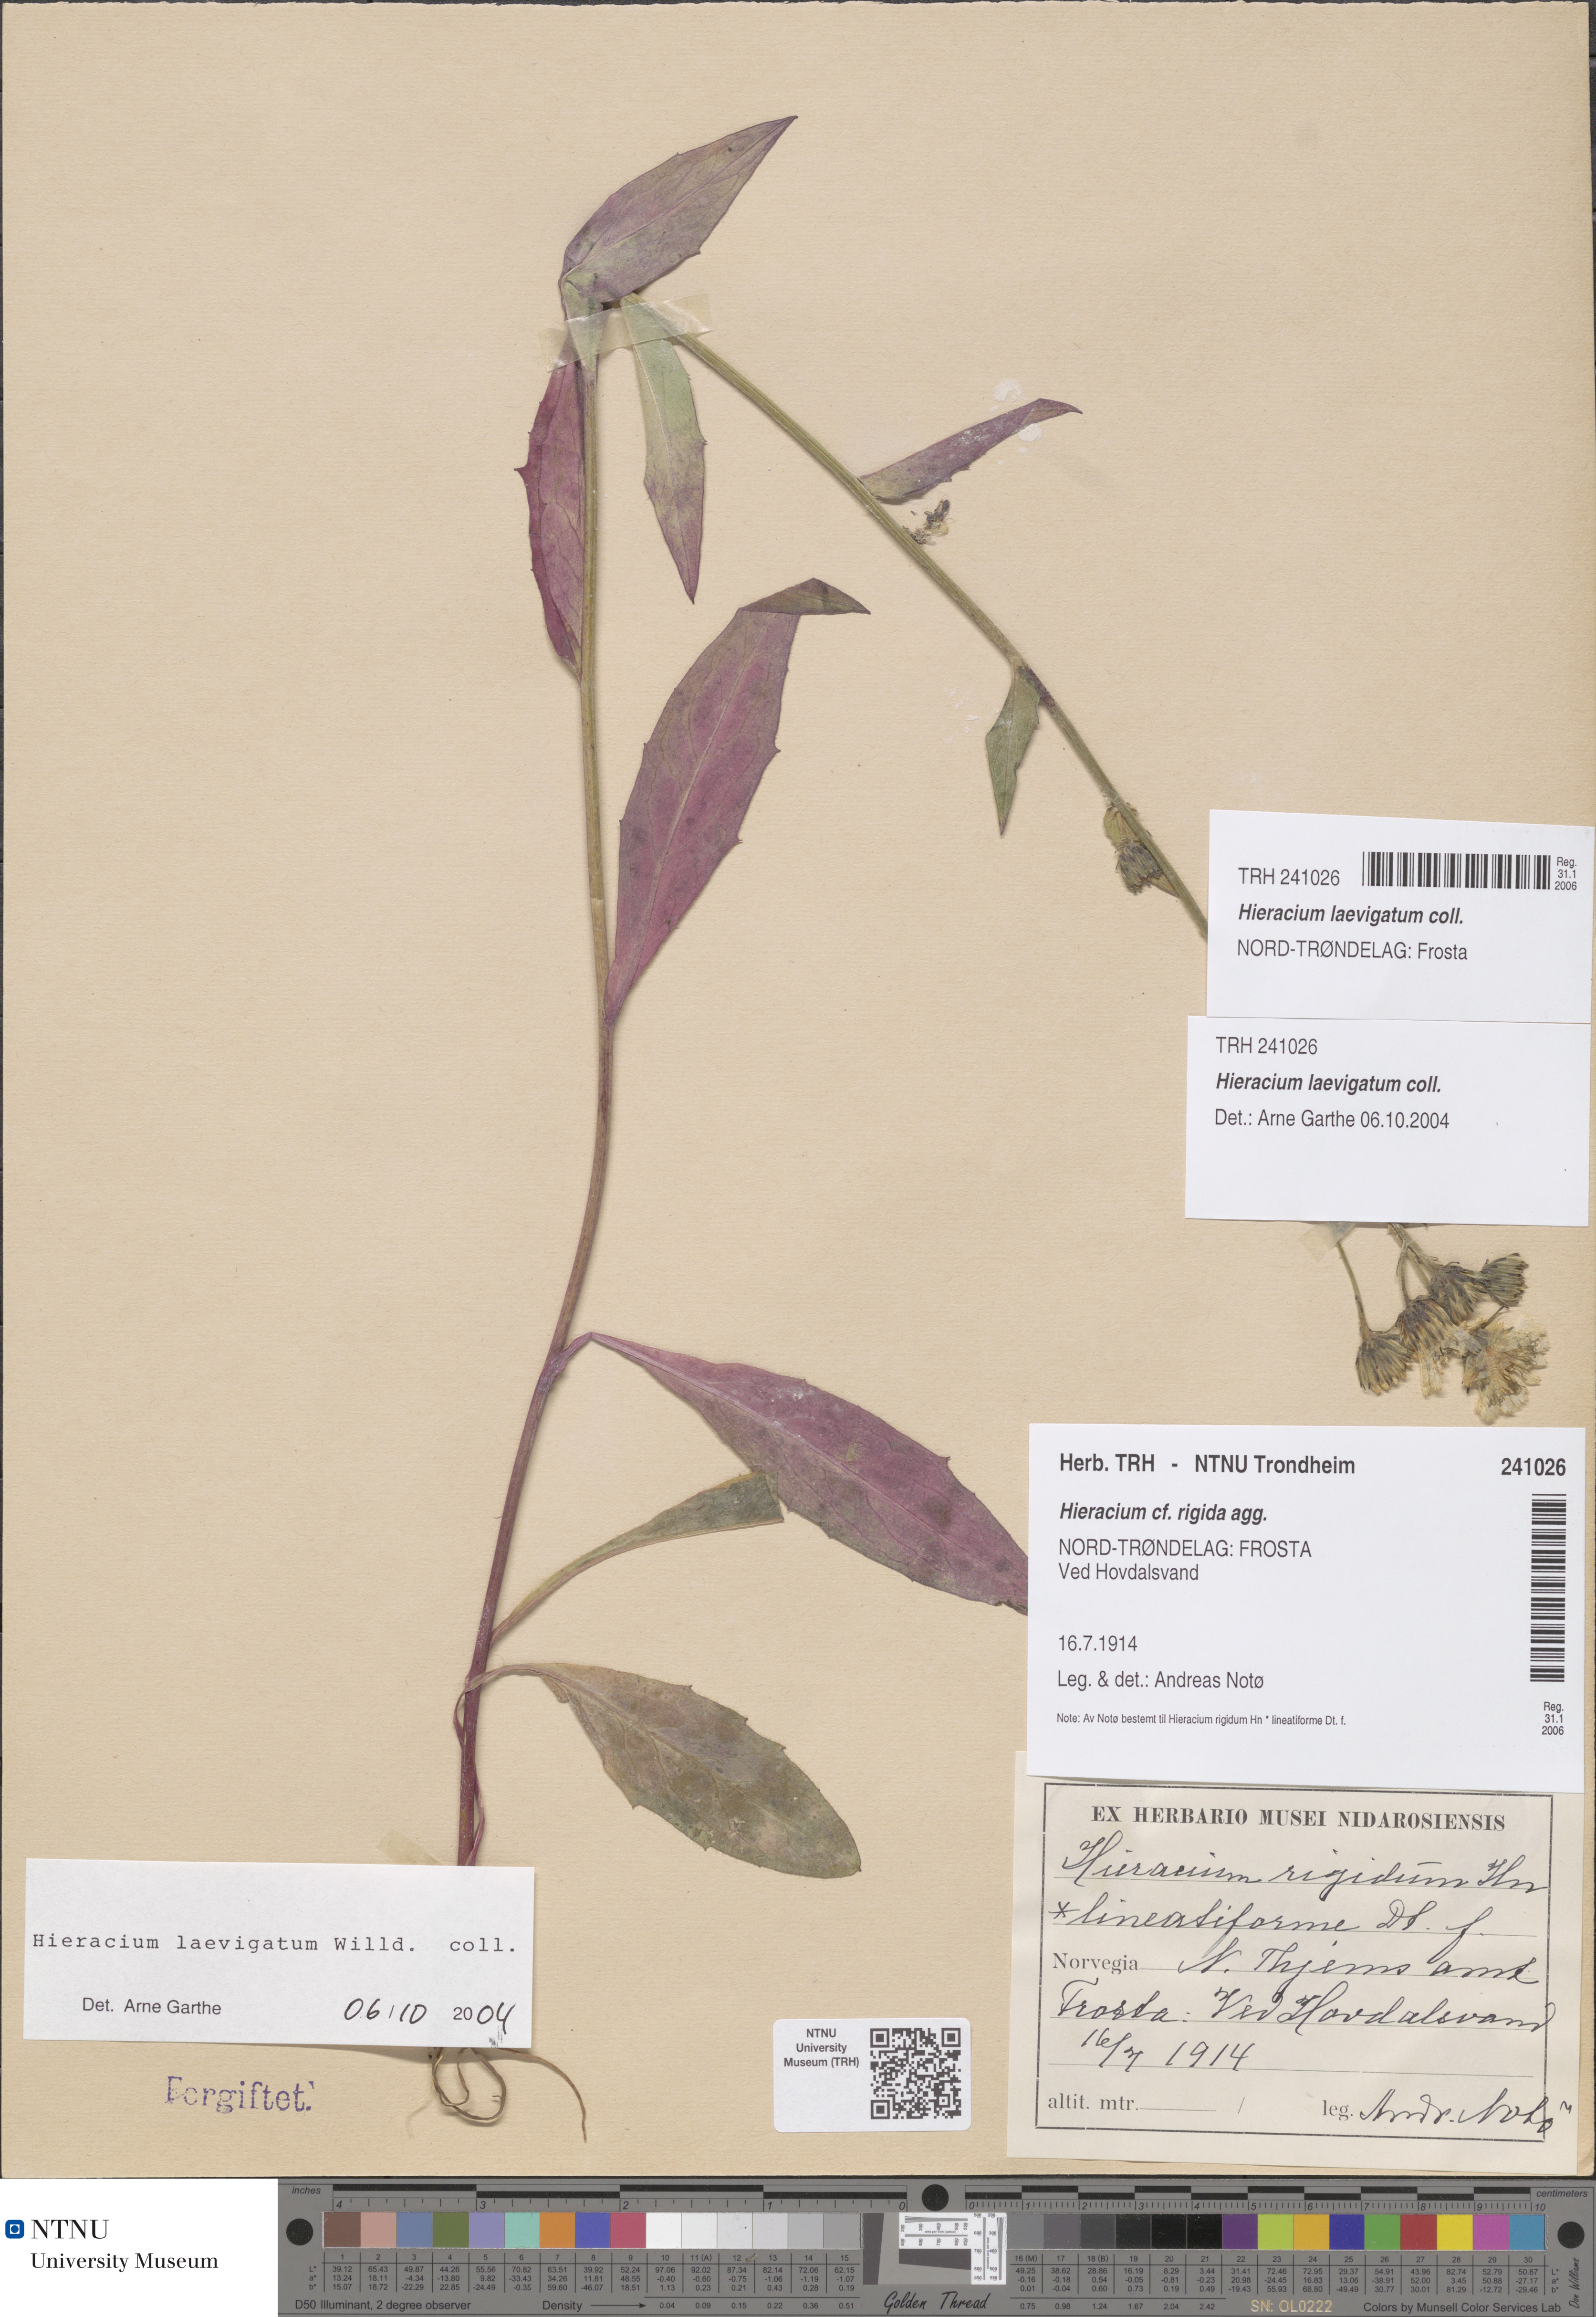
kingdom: Plantae
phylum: Tracheophyta
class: Magnoliopsida
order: Asterales
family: Asteraceae
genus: Hieracium
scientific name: Hieracium laevigatum
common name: Smooth hawkweed
